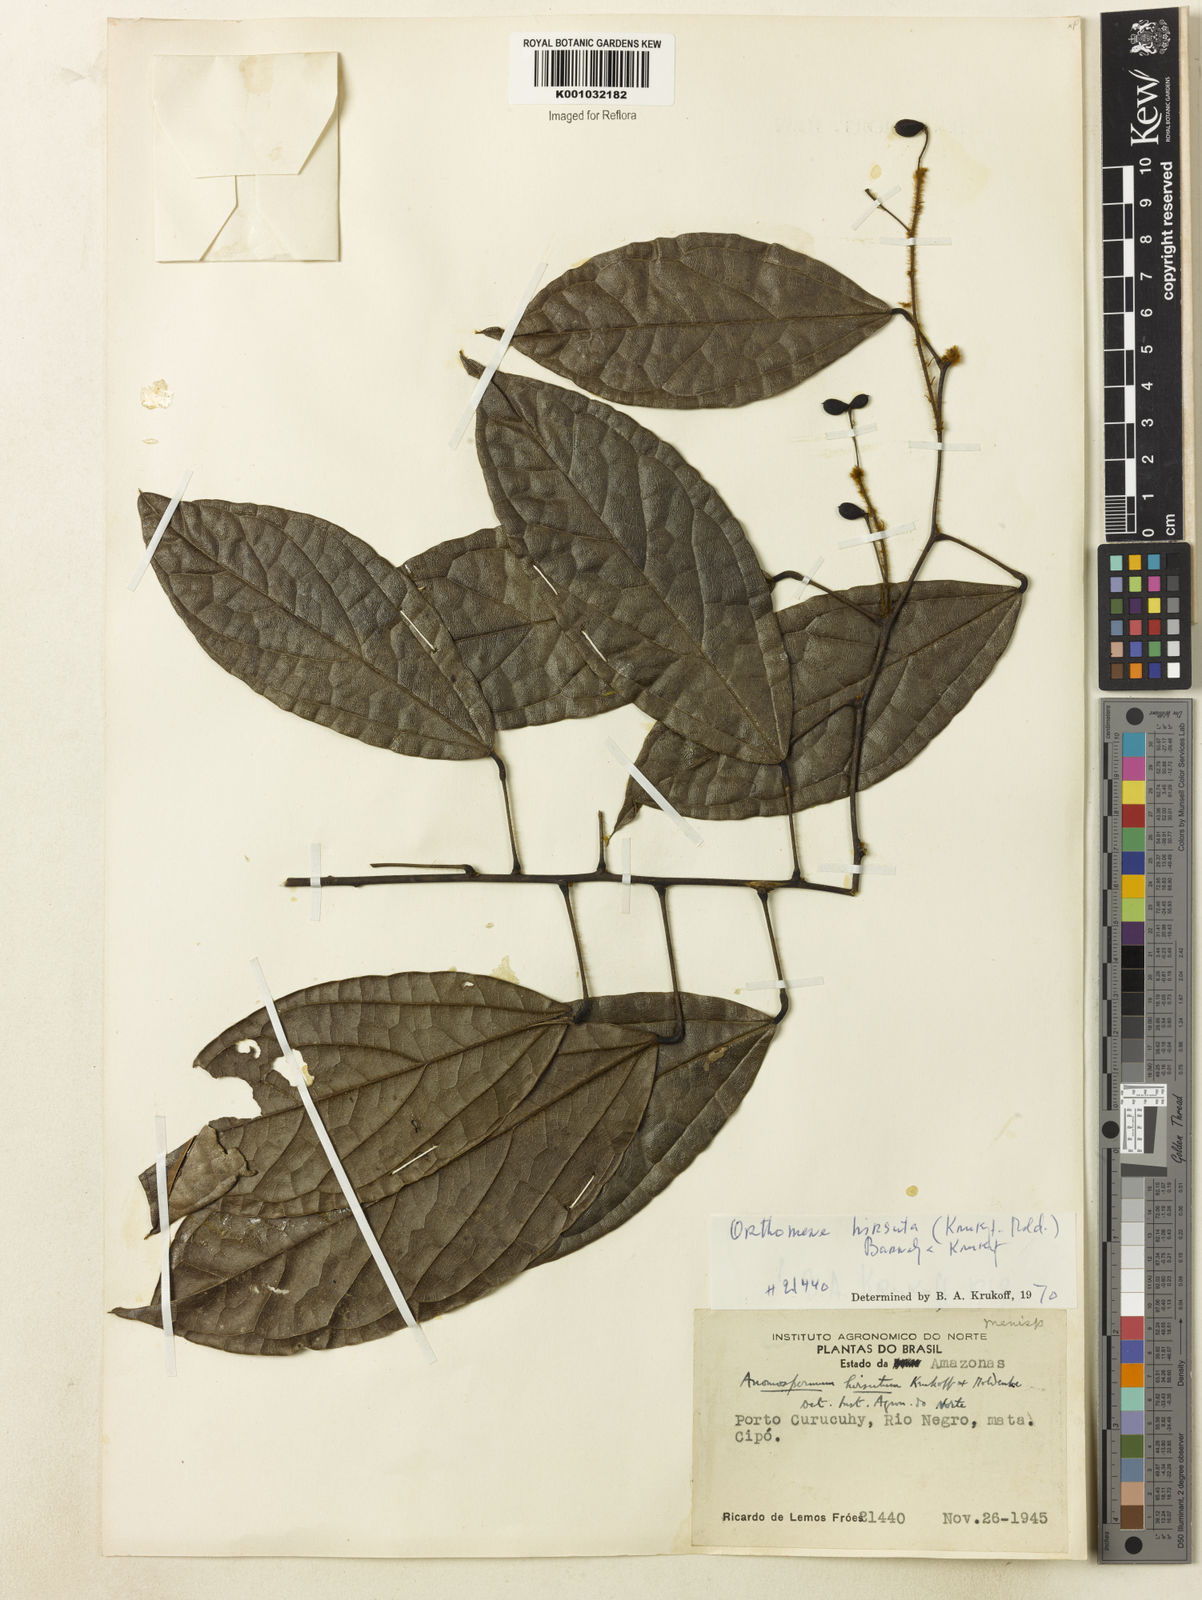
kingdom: Plantae
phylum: Tracheophyta
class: Magnoliopsida
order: Ranunculales
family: Menispermaceae
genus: Orthomene
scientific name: Orthomene hirsuta
